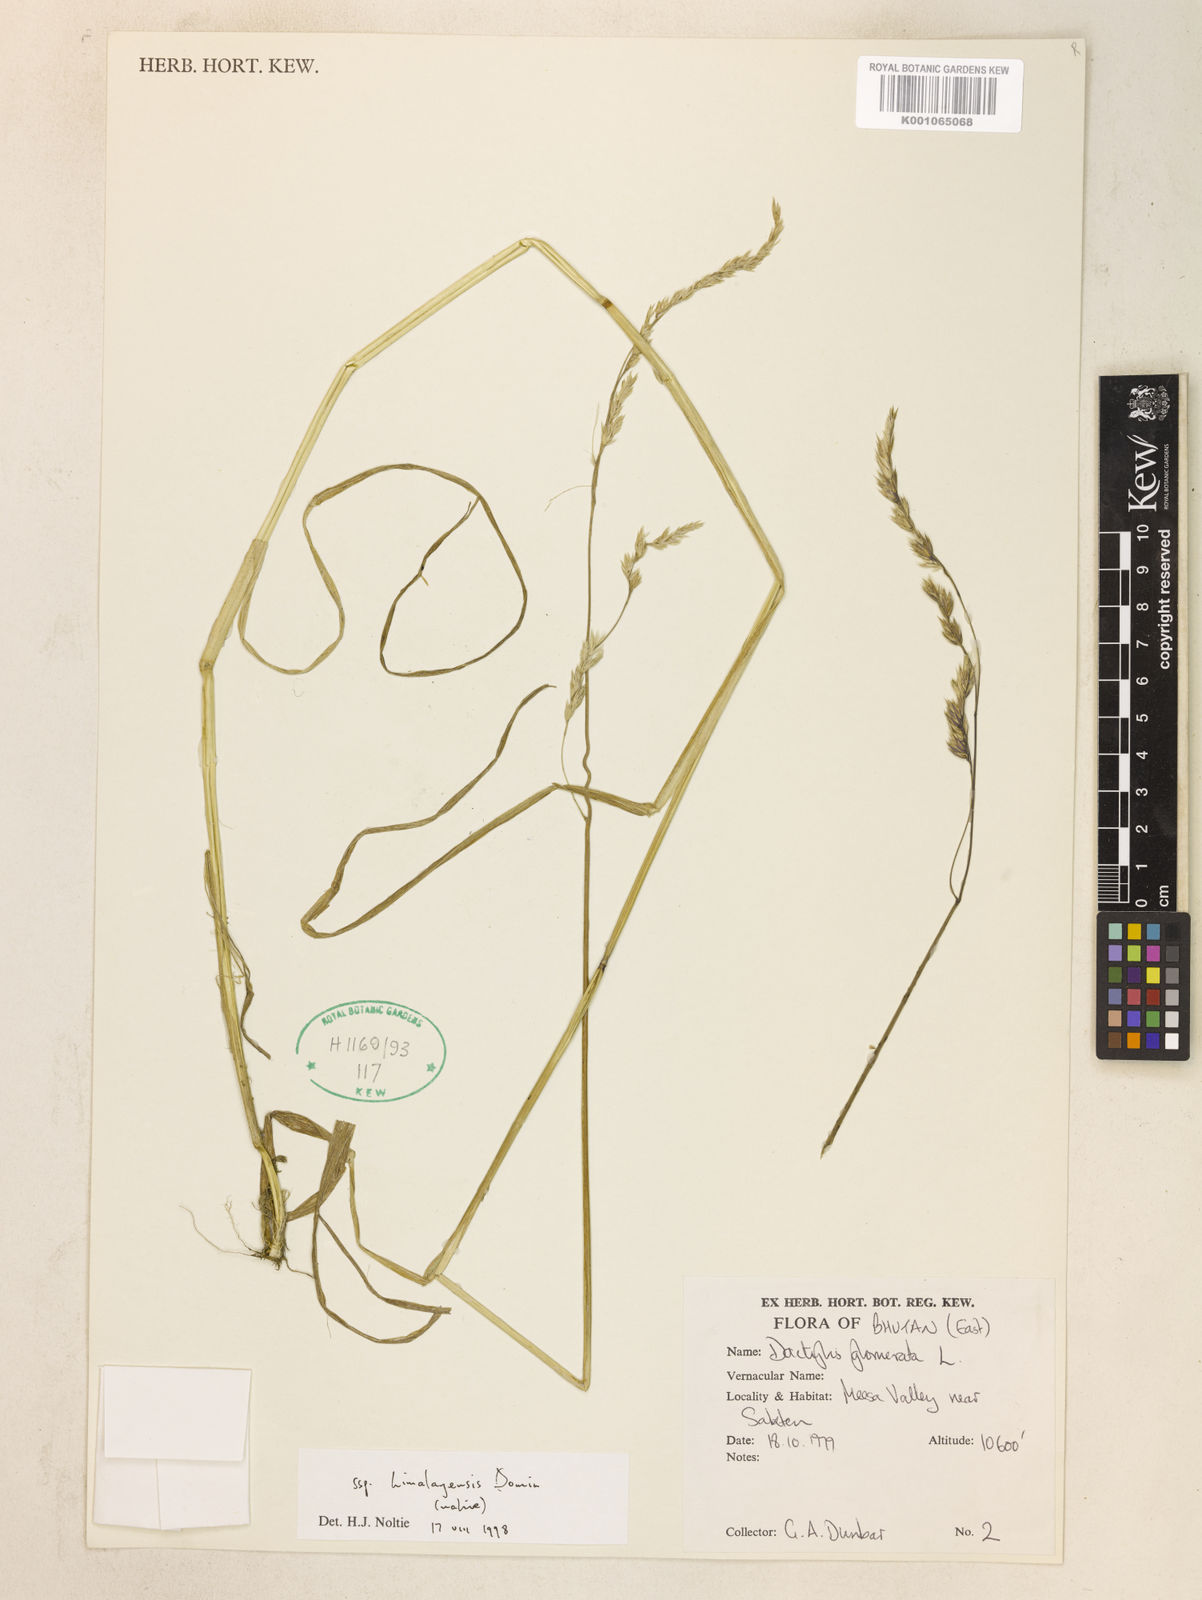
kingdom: Plantae
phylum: Tracheophyta
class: Liliopsida
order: Poales
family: Poaceae
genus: Dactylis
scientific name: Dactylis glomerata
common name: Orchardgrass
